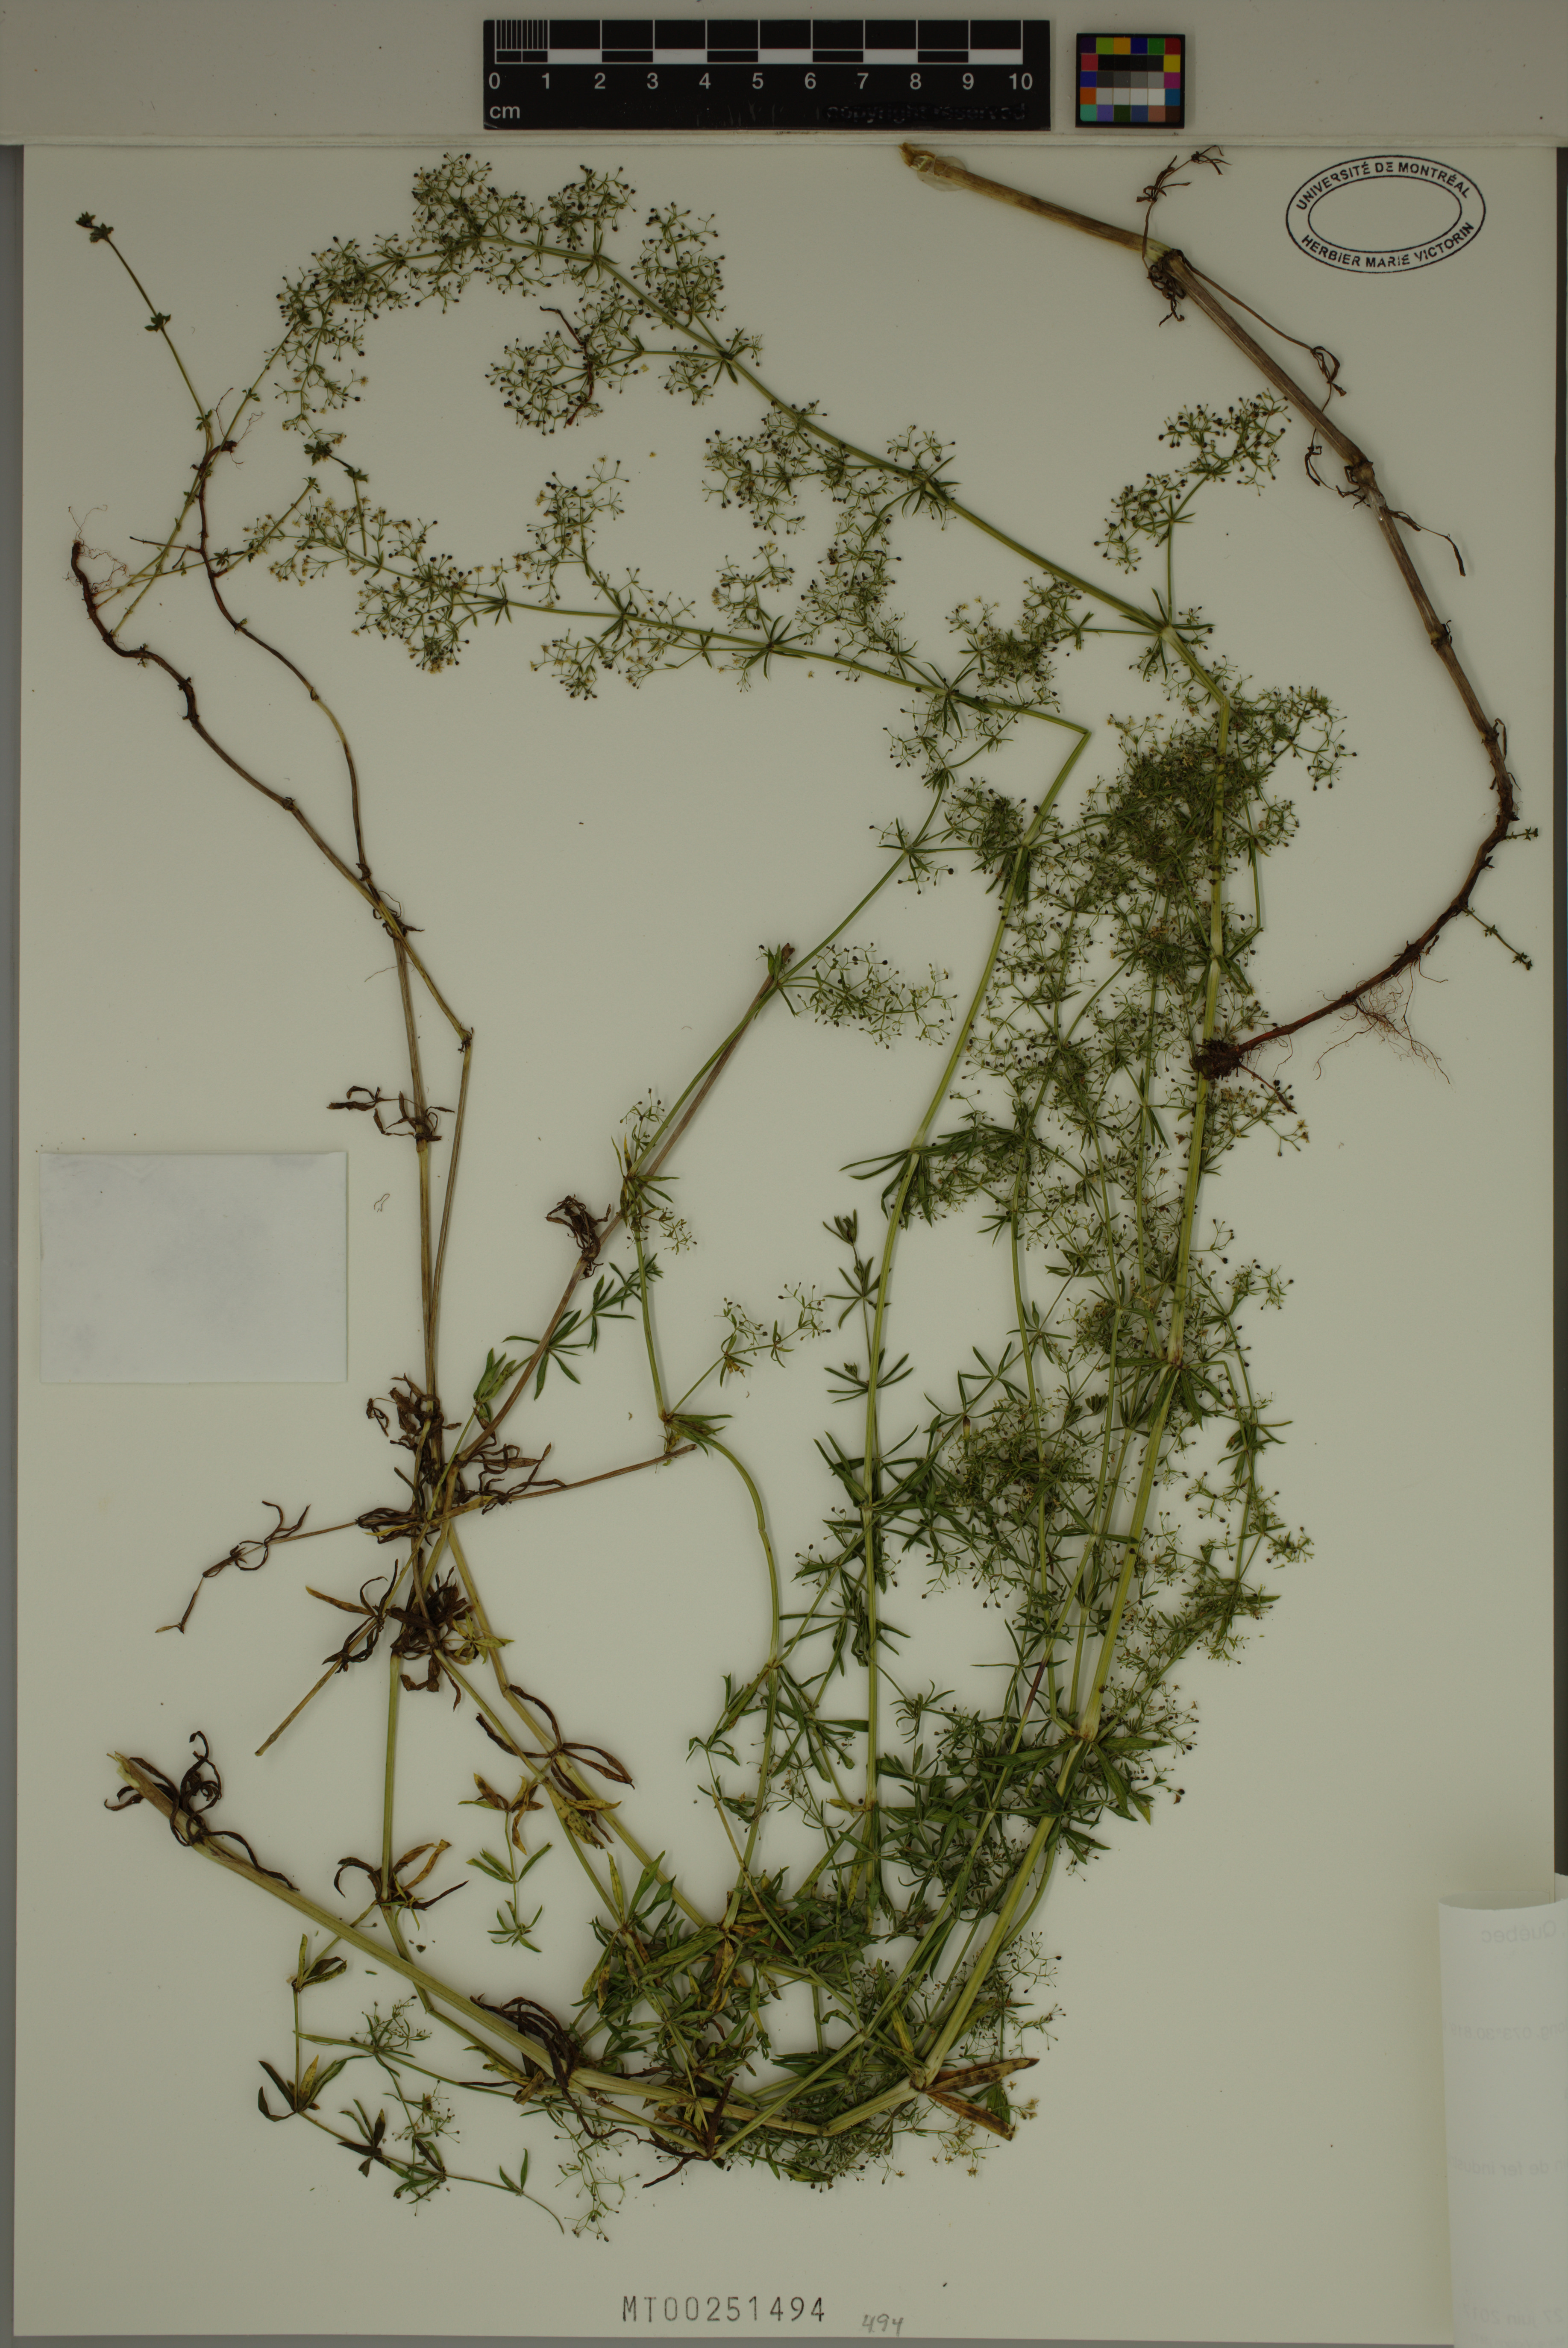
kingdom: Plantae
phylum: Tracheophyta
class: Magnoliopsida
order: Gentianales
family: Rubiaceae
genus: Galium
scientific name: Galium mollugo
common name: Hedge bedstraw
